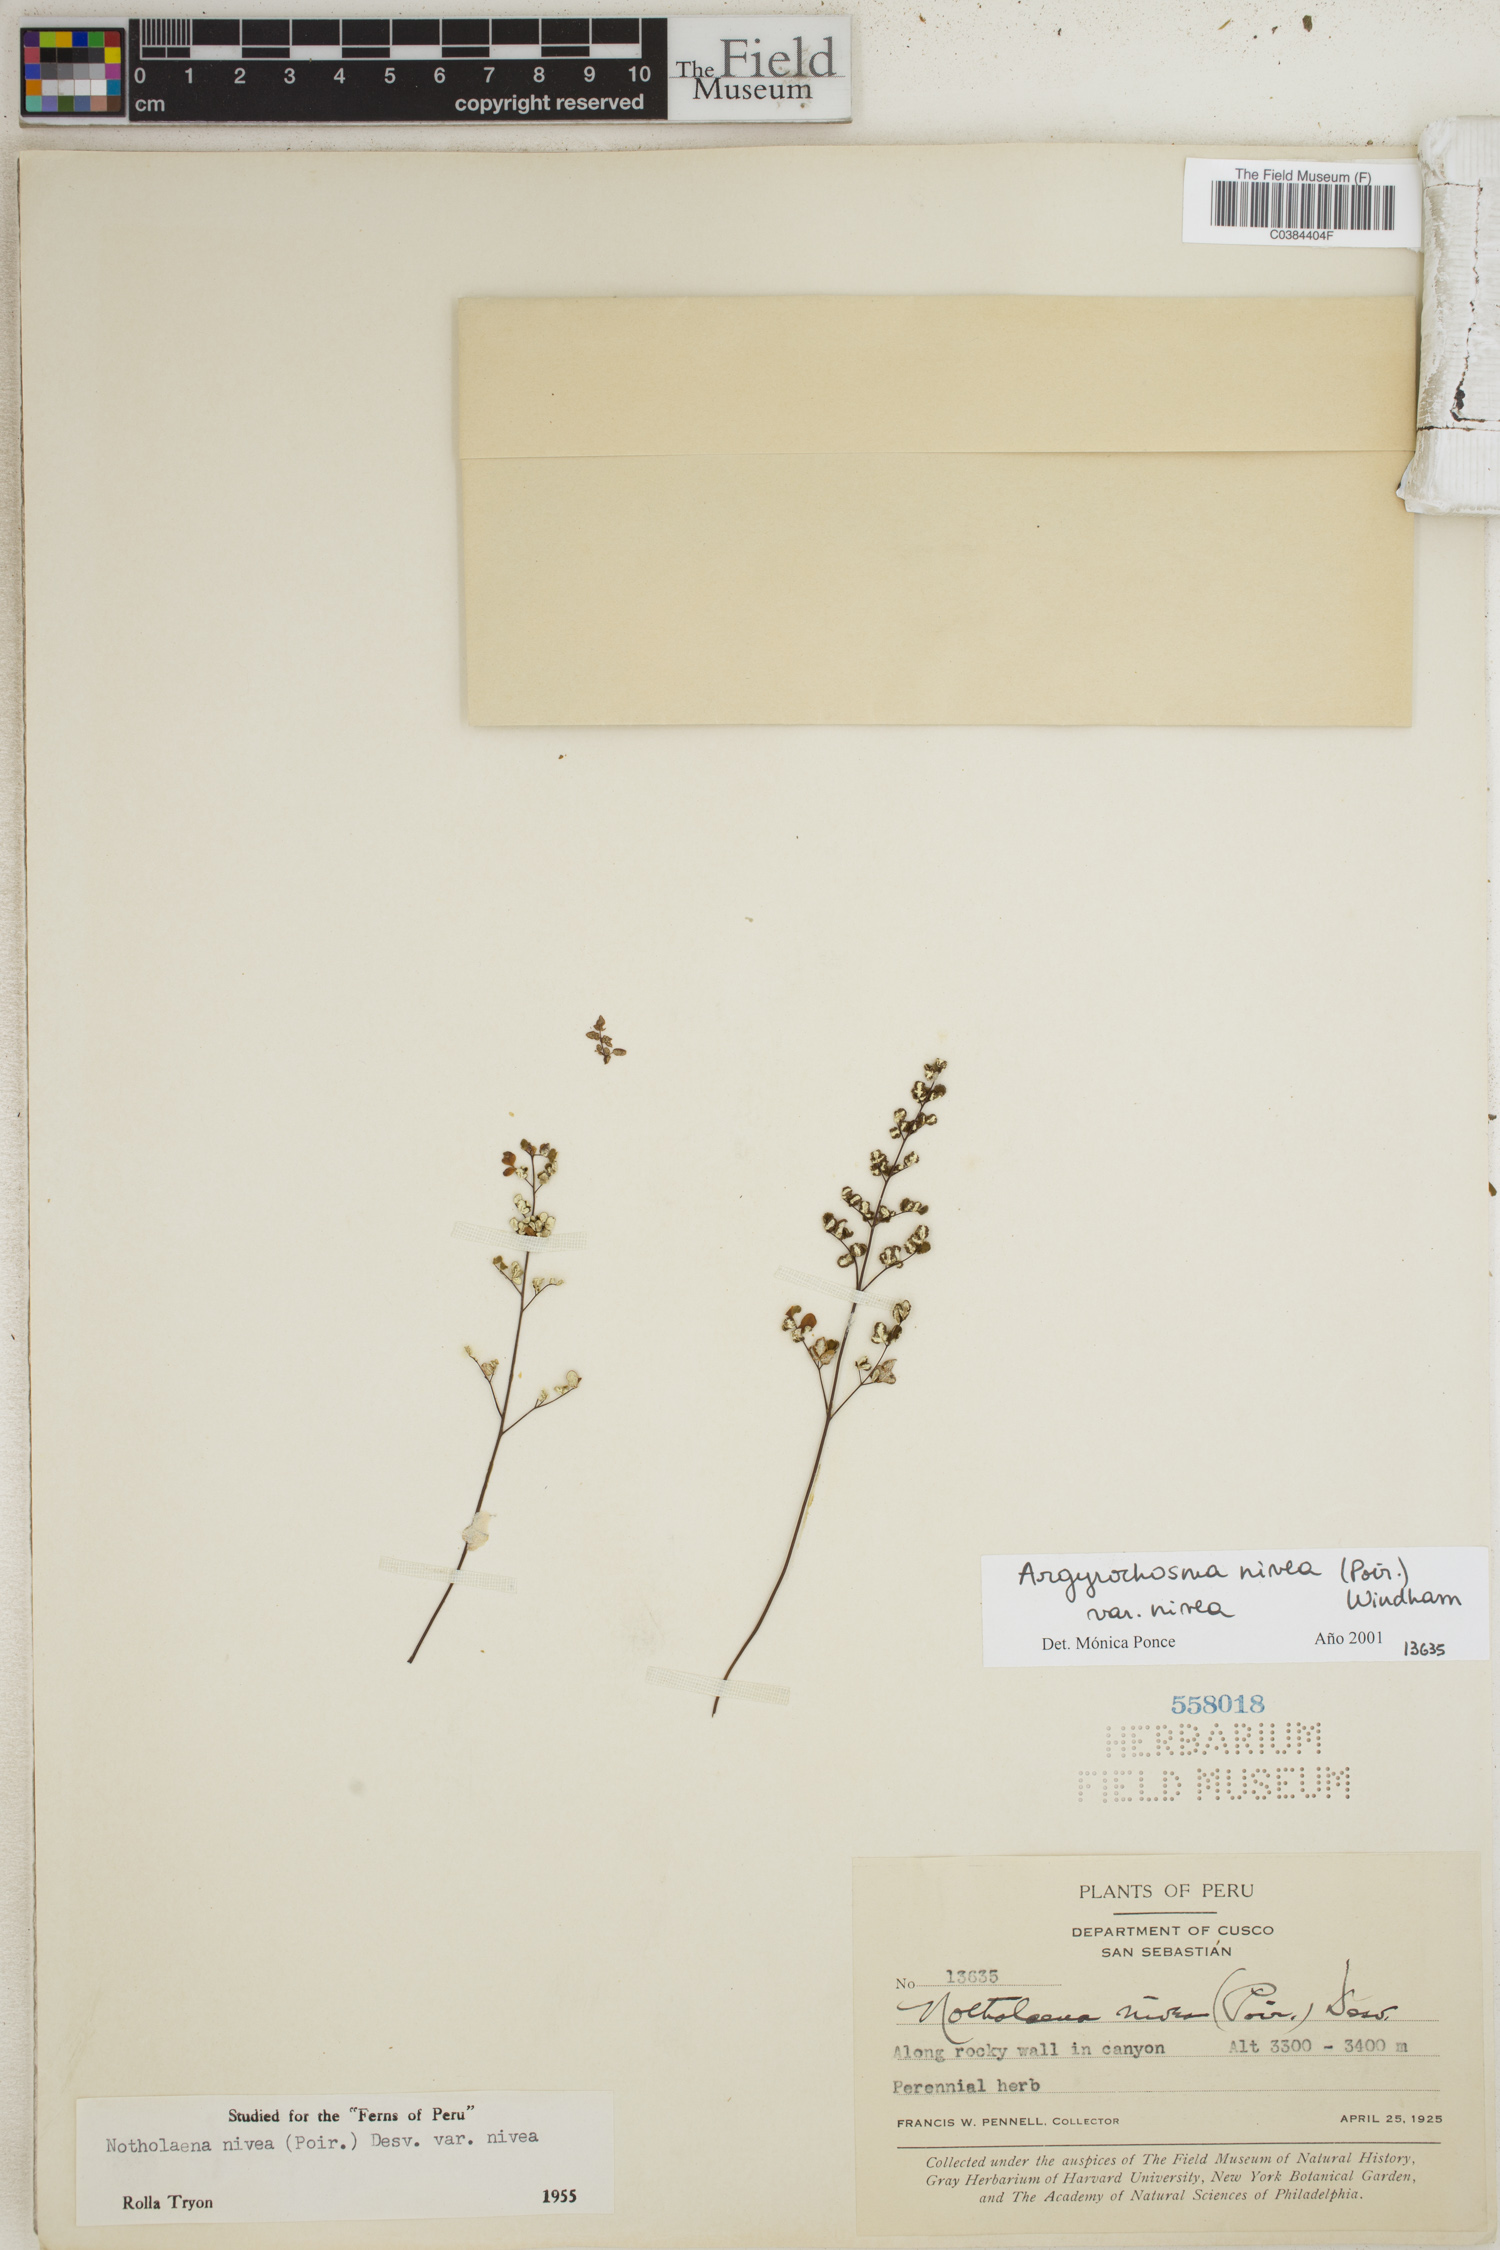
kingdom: Plantae
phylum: Tracheophyta
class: Polypodiopsida
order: Polypodiales
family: Pteridaceae
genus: Argyrochosma
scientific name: Argyrochosma nivea
